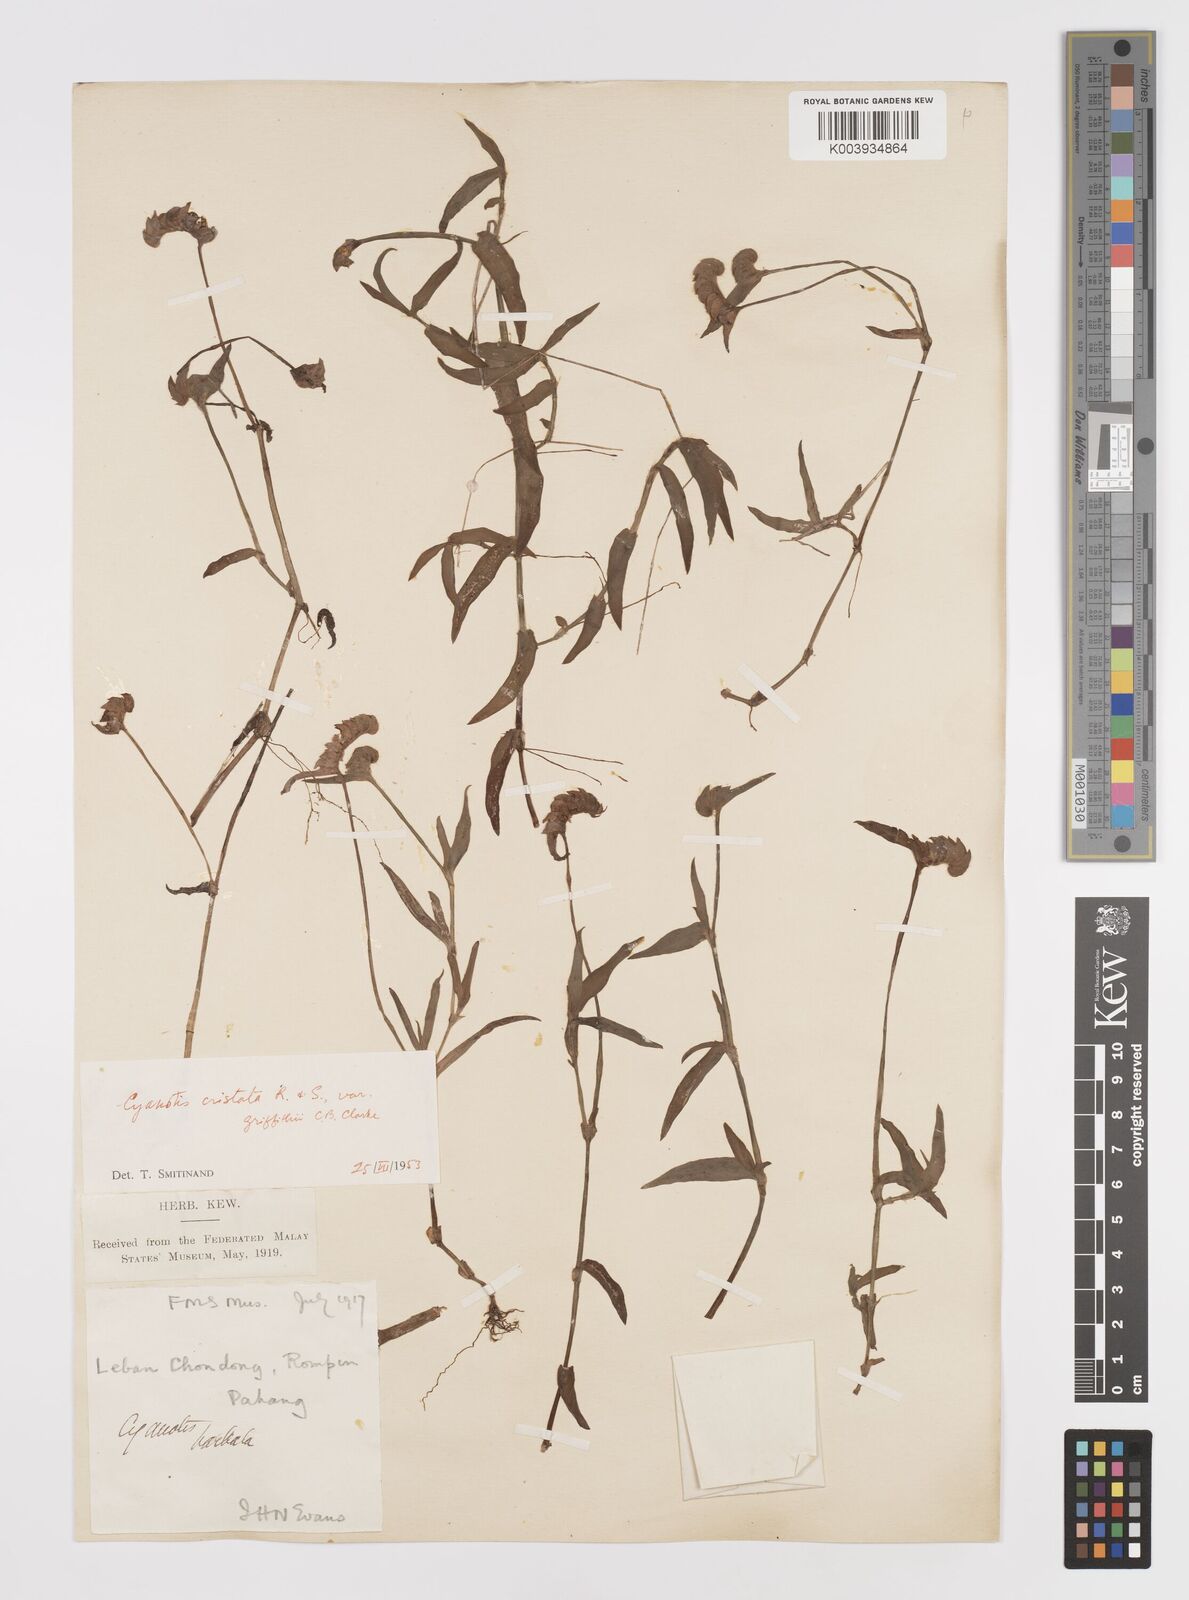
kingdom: Plantae
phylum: Tracheophyta
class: Liliopsida
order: Commelinales
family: Commelinaceae
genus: Cyanotis
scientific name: Cyanotis cristata
